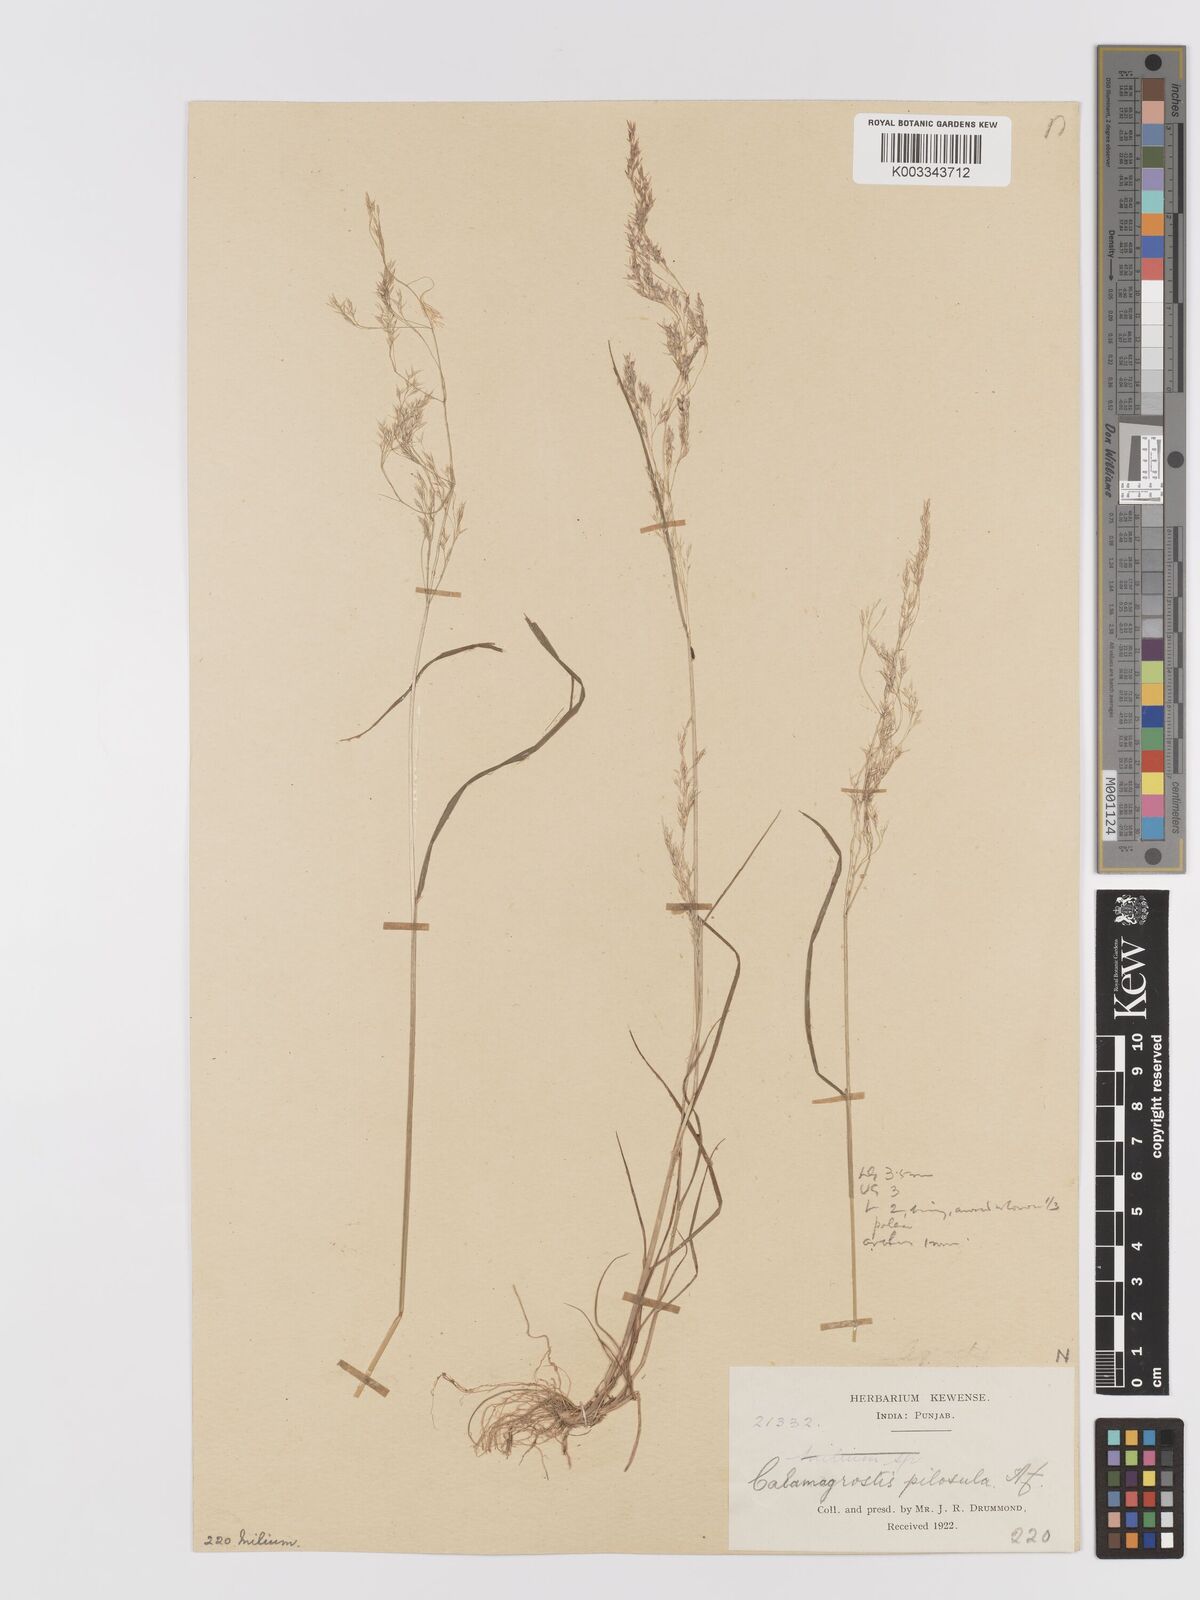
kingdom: Plantae
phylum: Tracheophyta
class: Liliopsida
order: Poales
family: Poaceae
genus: Agrostis
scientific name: Agrostis pilosula
